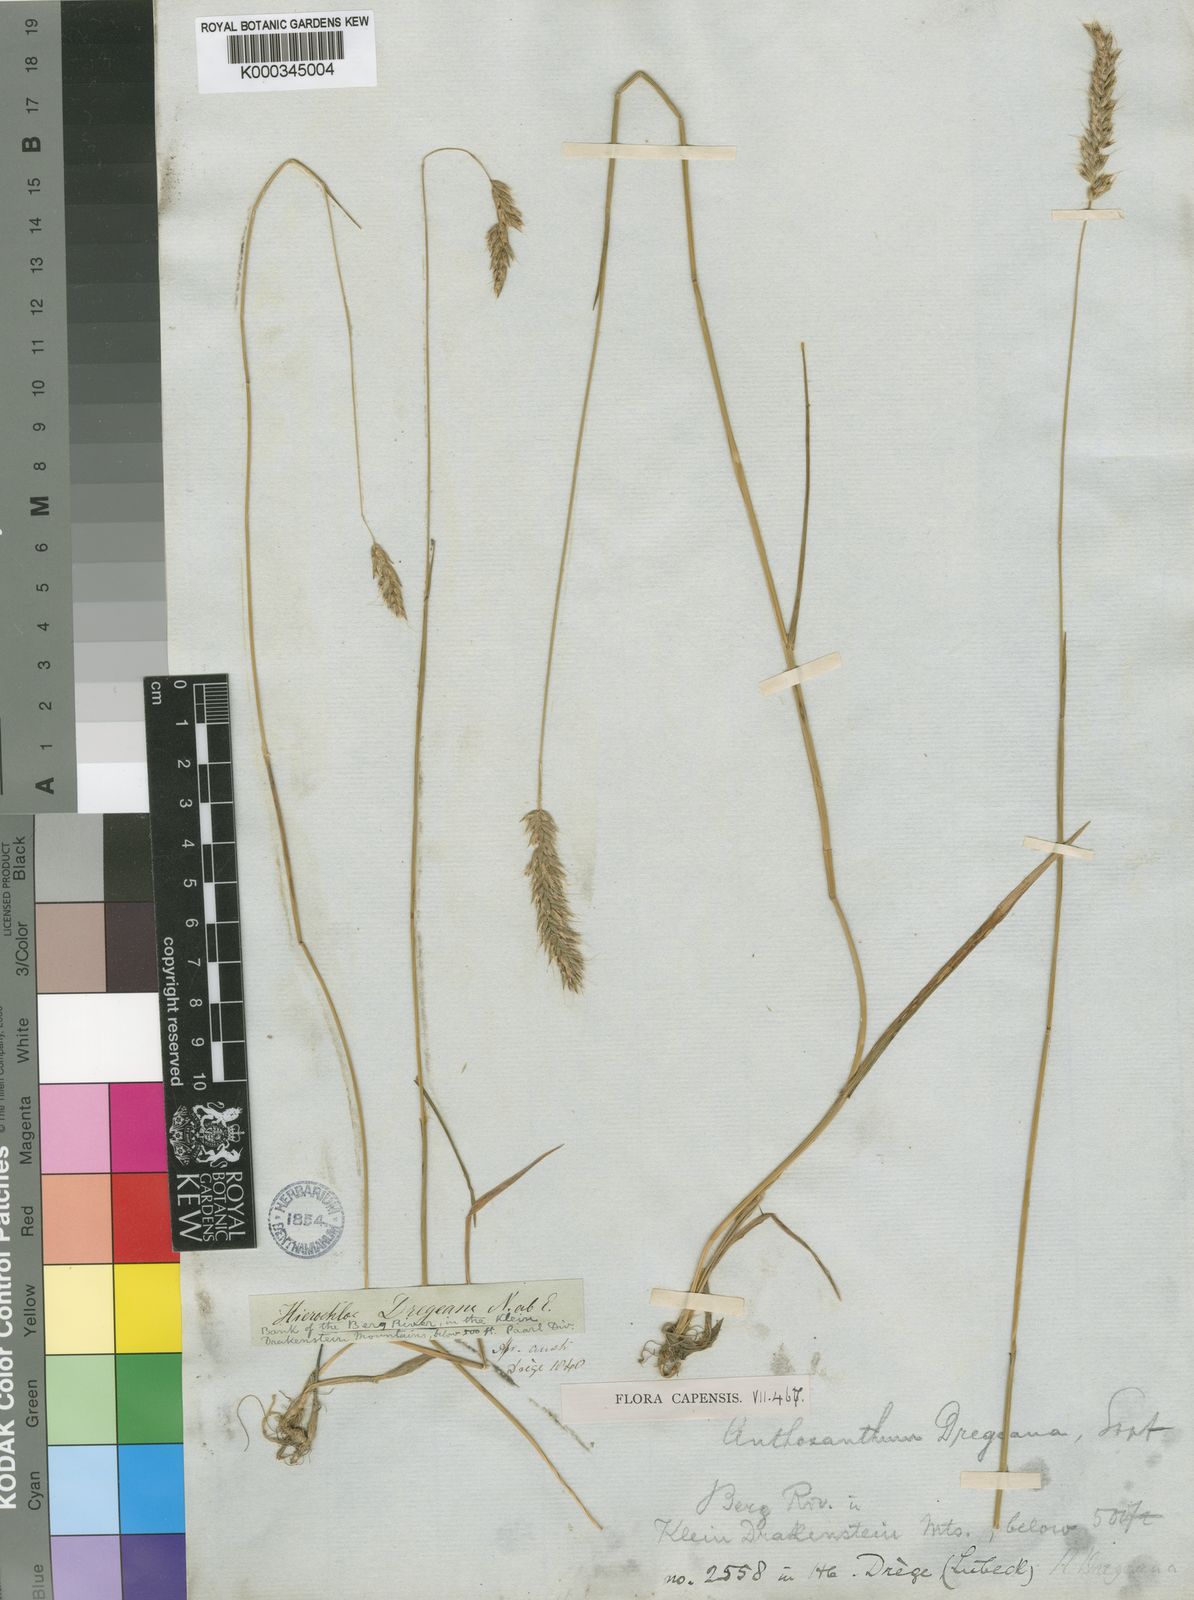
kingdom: Plantae
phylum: Tracheophyta
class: Liliopsida
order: Poales
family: Poaceae
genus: Anthoxanthum
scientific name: Anthoxanthum dregeanum
